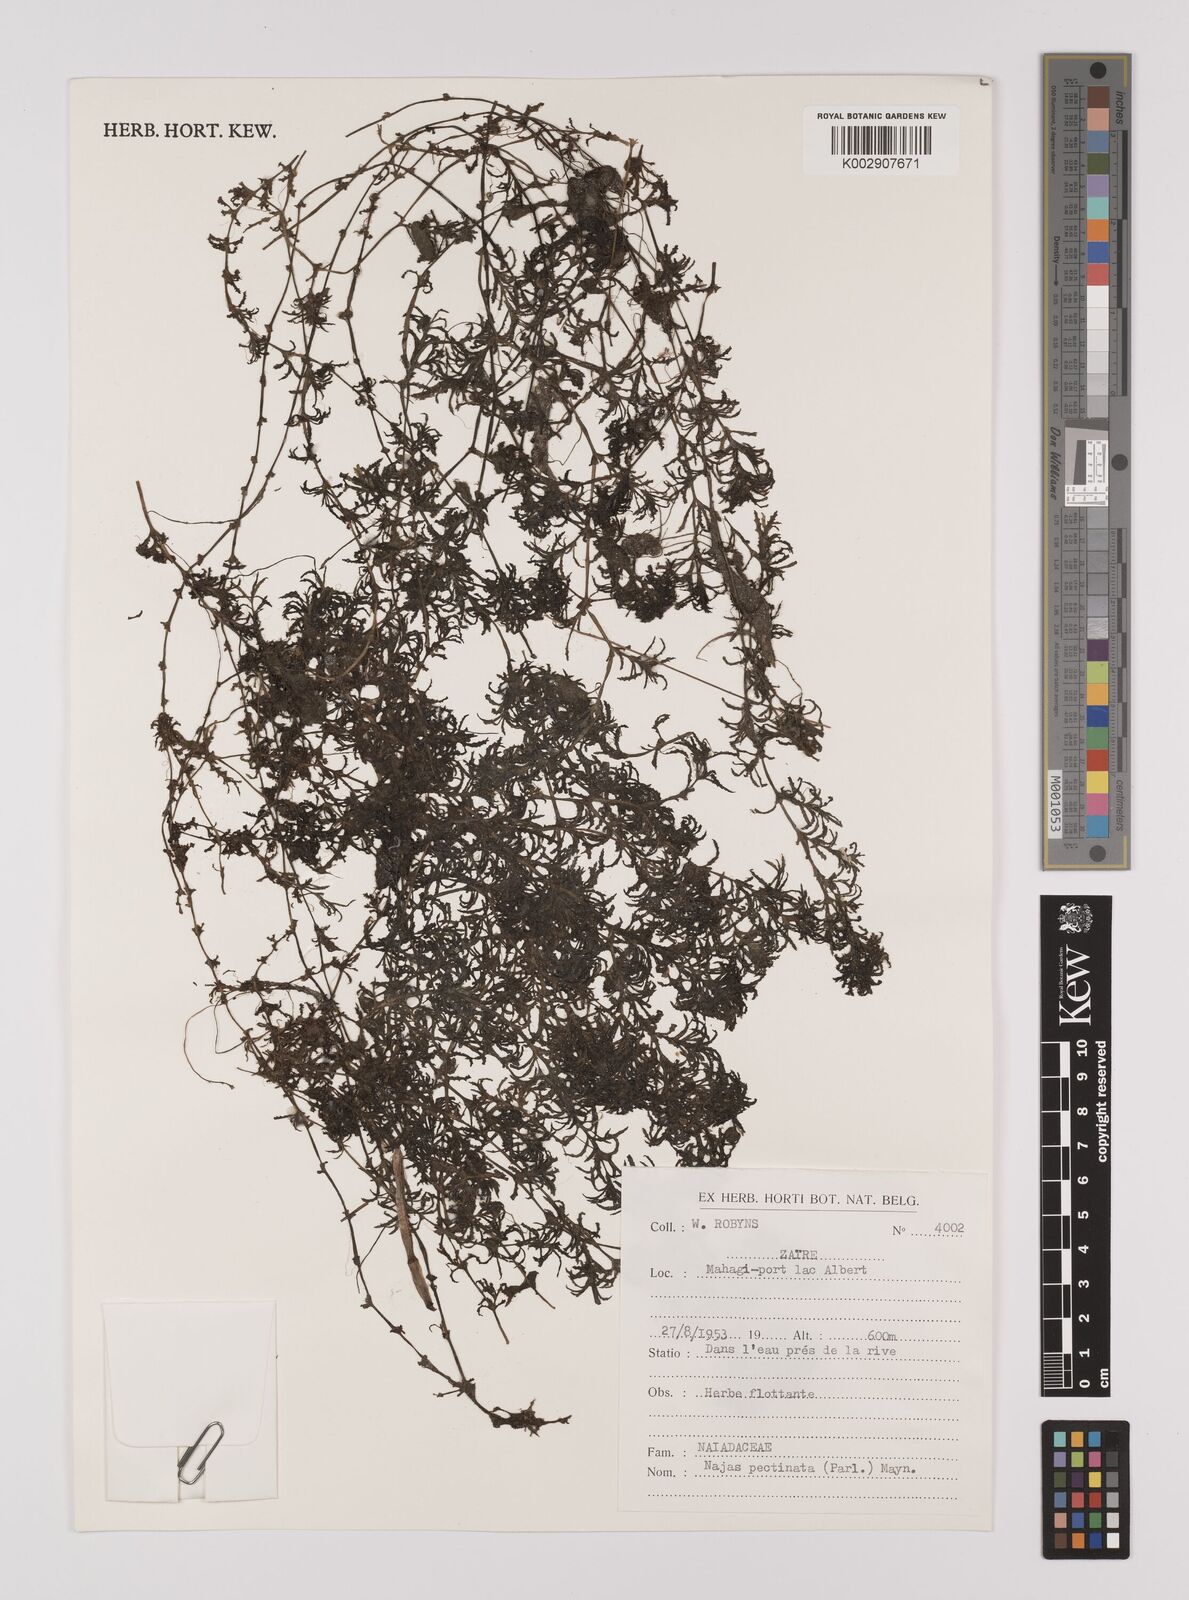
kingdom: Plantae
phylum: Tracheophyta
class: Liliopsida
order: Alismatales
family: Hydrocharitaceae
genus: Najas
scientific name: Najas pectinata
